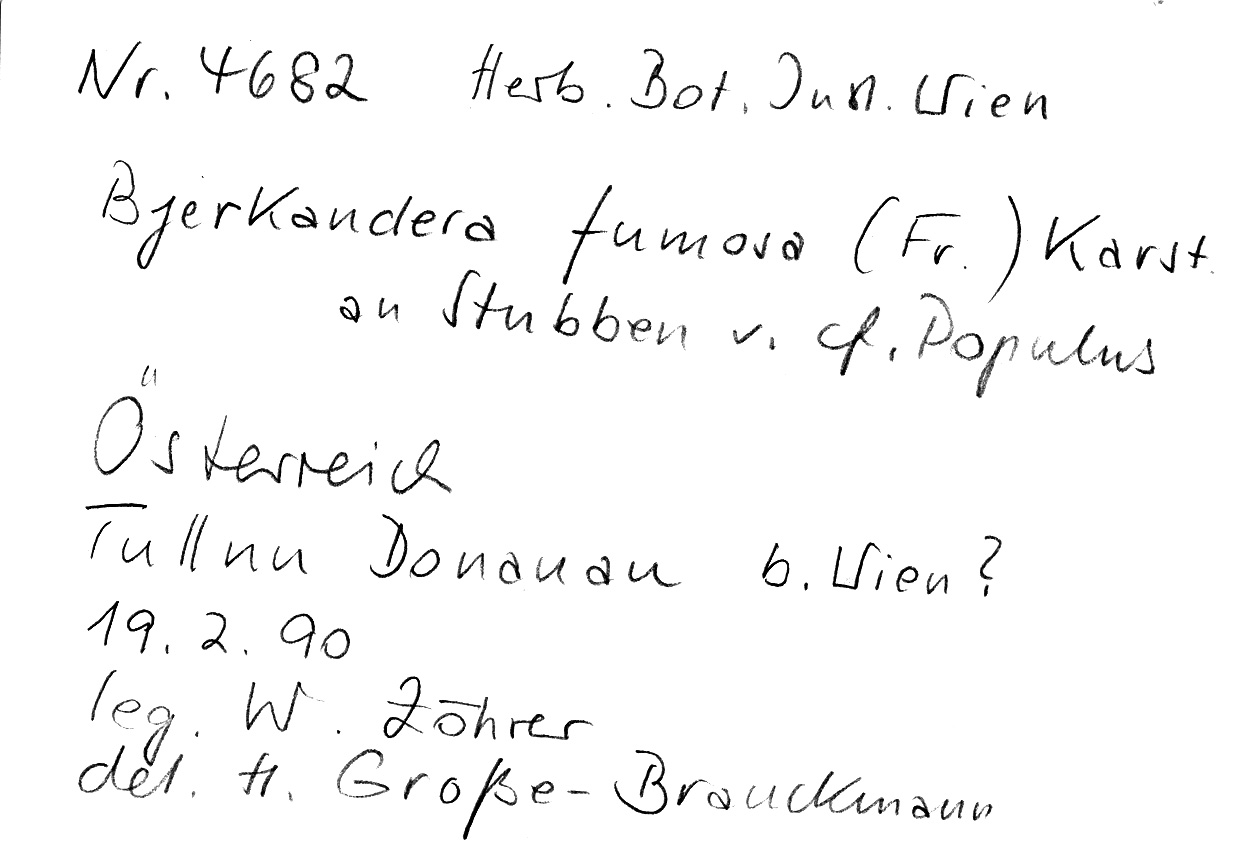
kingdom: Fungi
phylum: Basidiomycota
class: Agaricomycetes
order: Polyporales
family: Phanerochaetaceae
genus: Bjerkandera
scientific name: Bjerkandera fumosa
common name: Big smoky bracket
